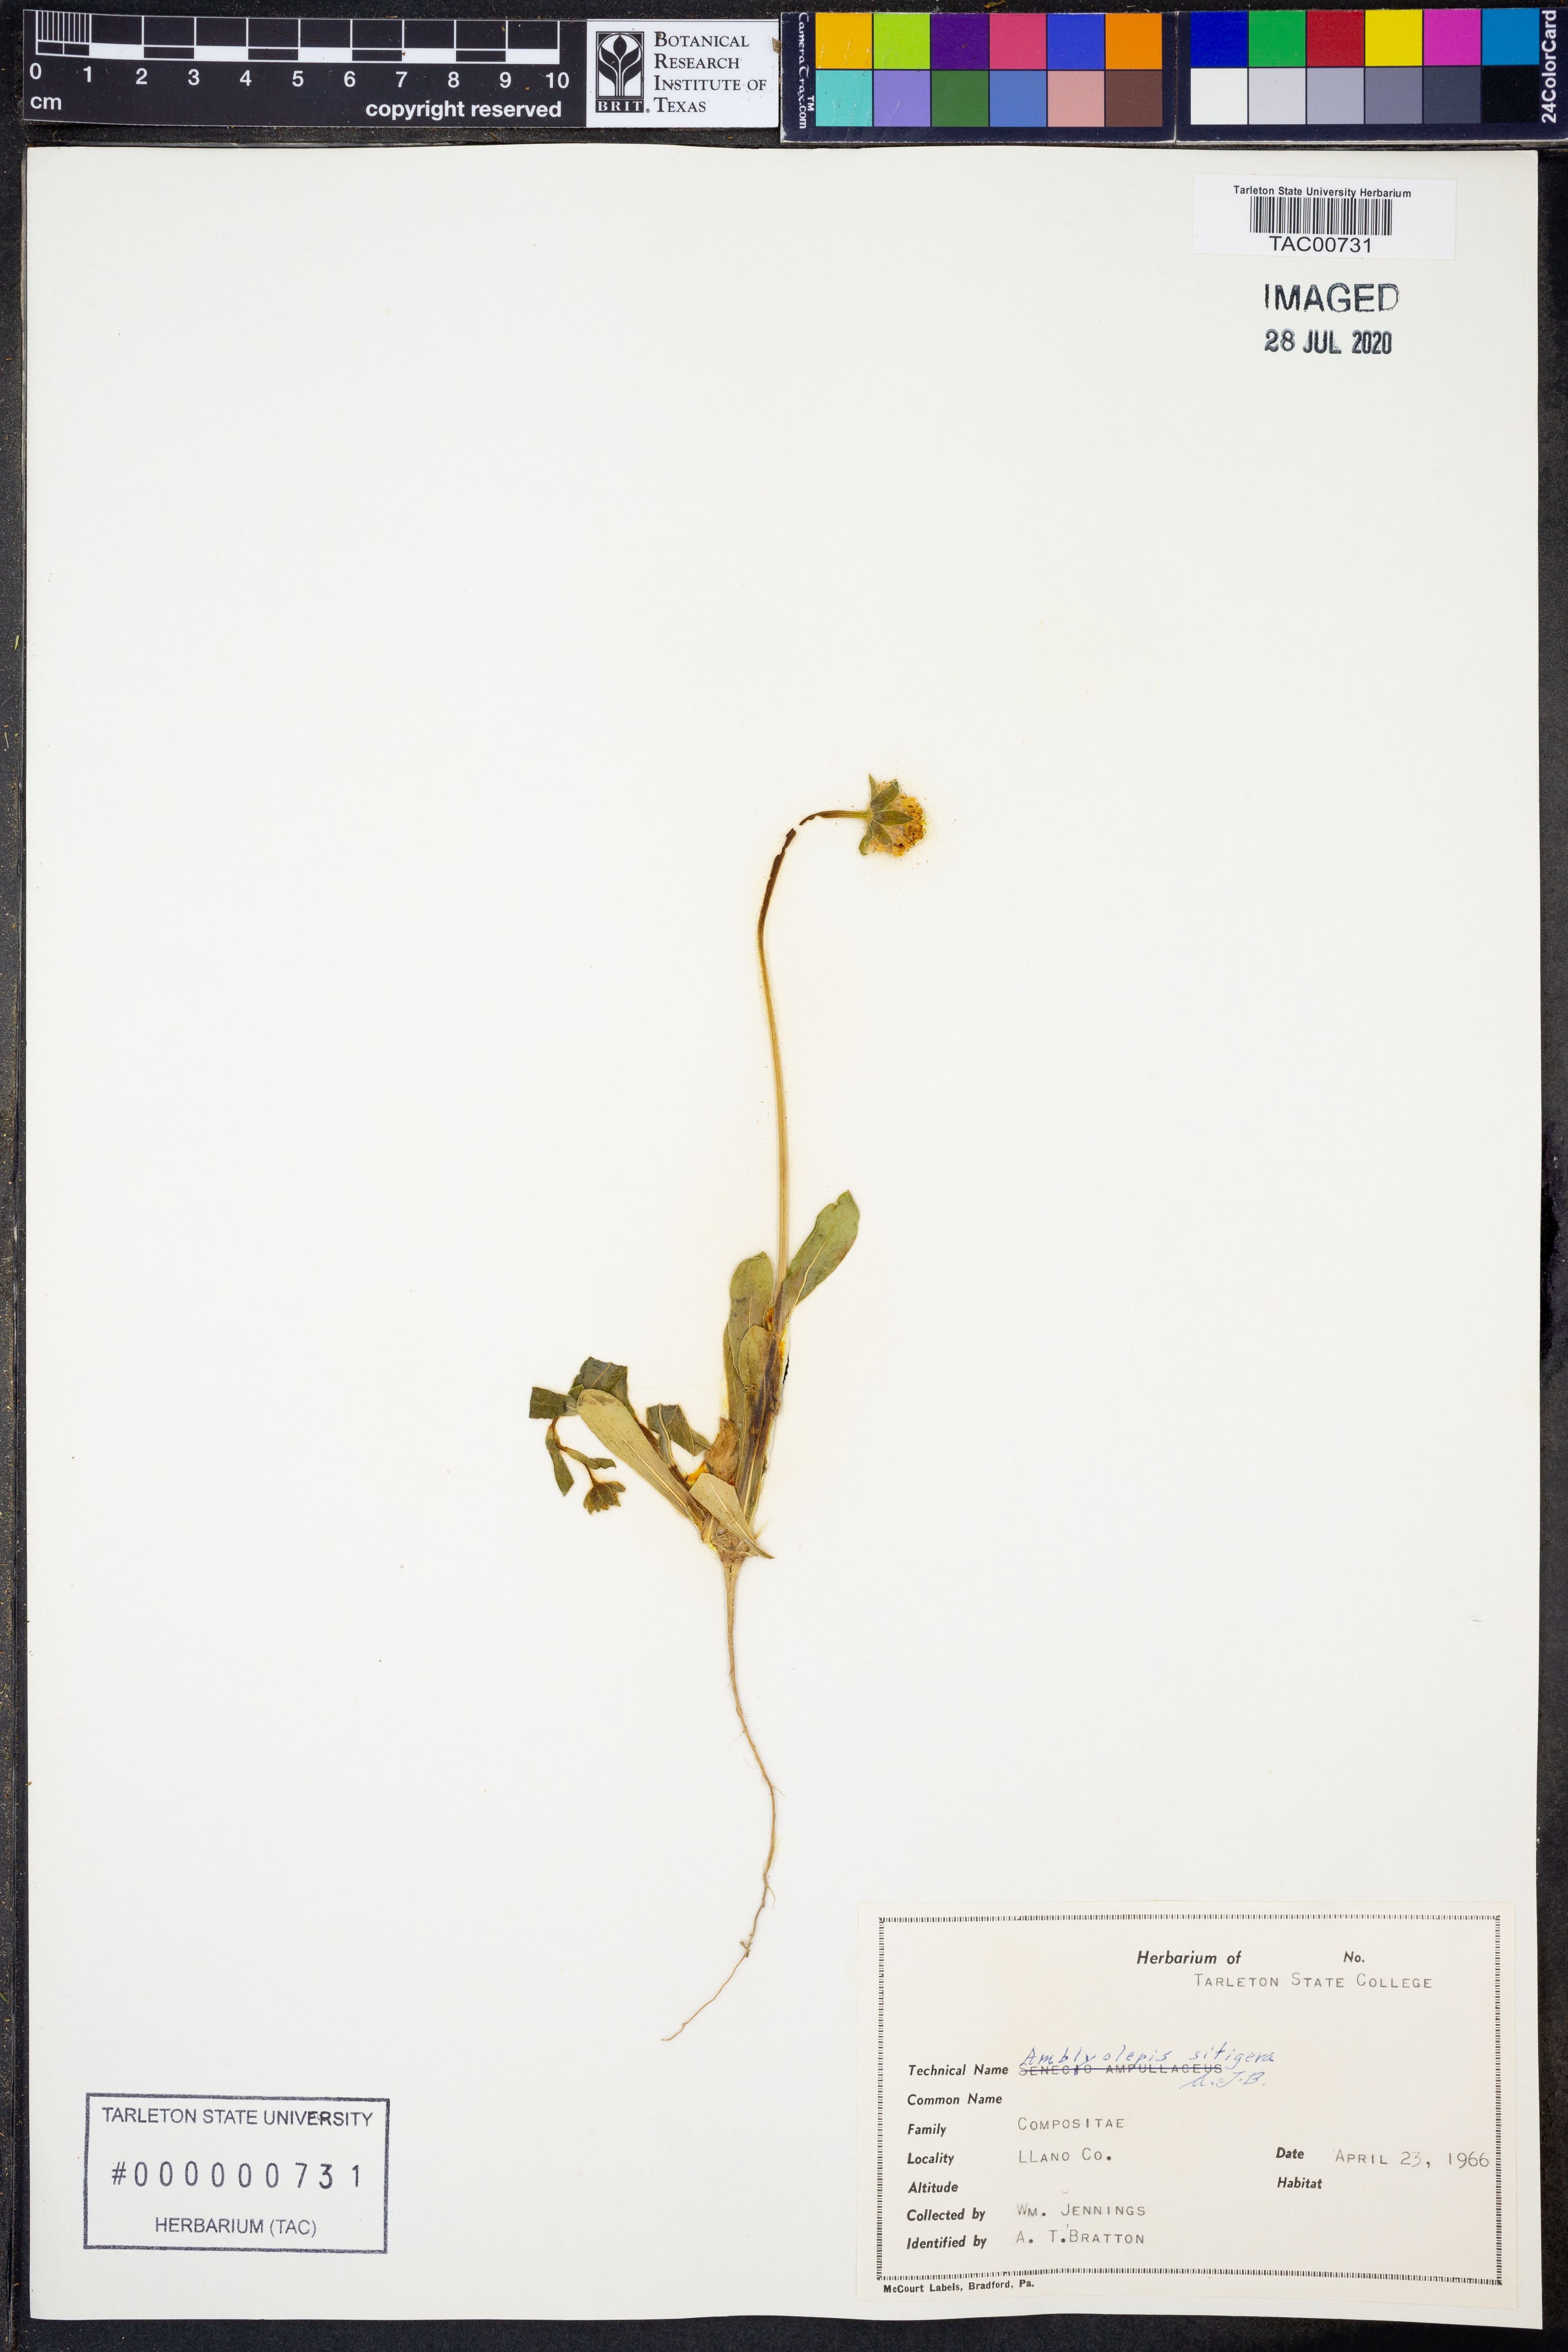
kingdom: Plantae
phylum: Tracheophyta
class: Magnoliopsida
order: Asterales
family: Asteraceae
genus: Amblyolepis
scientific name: Amblyolepis setigera
